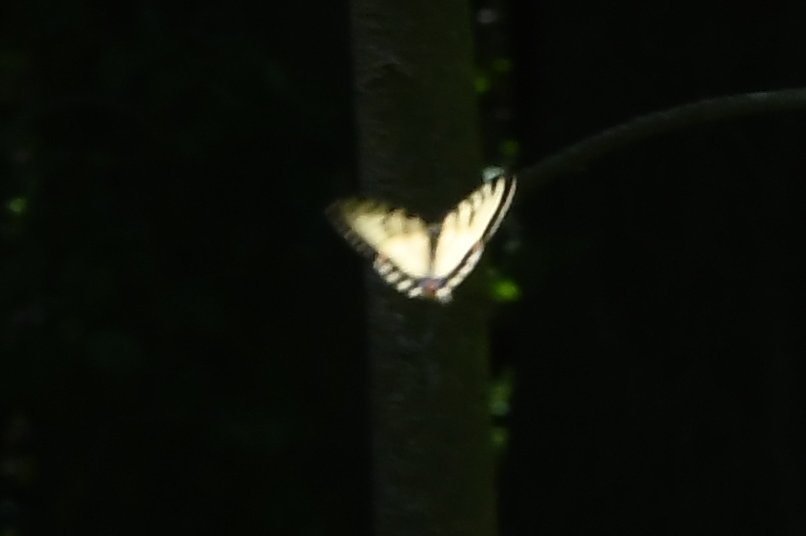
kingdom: Animalia
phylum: Arthropoda
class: Insecta
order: Lepidoptera
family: Papilionidae
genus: Pterourus
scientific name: Pterourus canadensis
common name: Canadian Tiger Swallowtail
